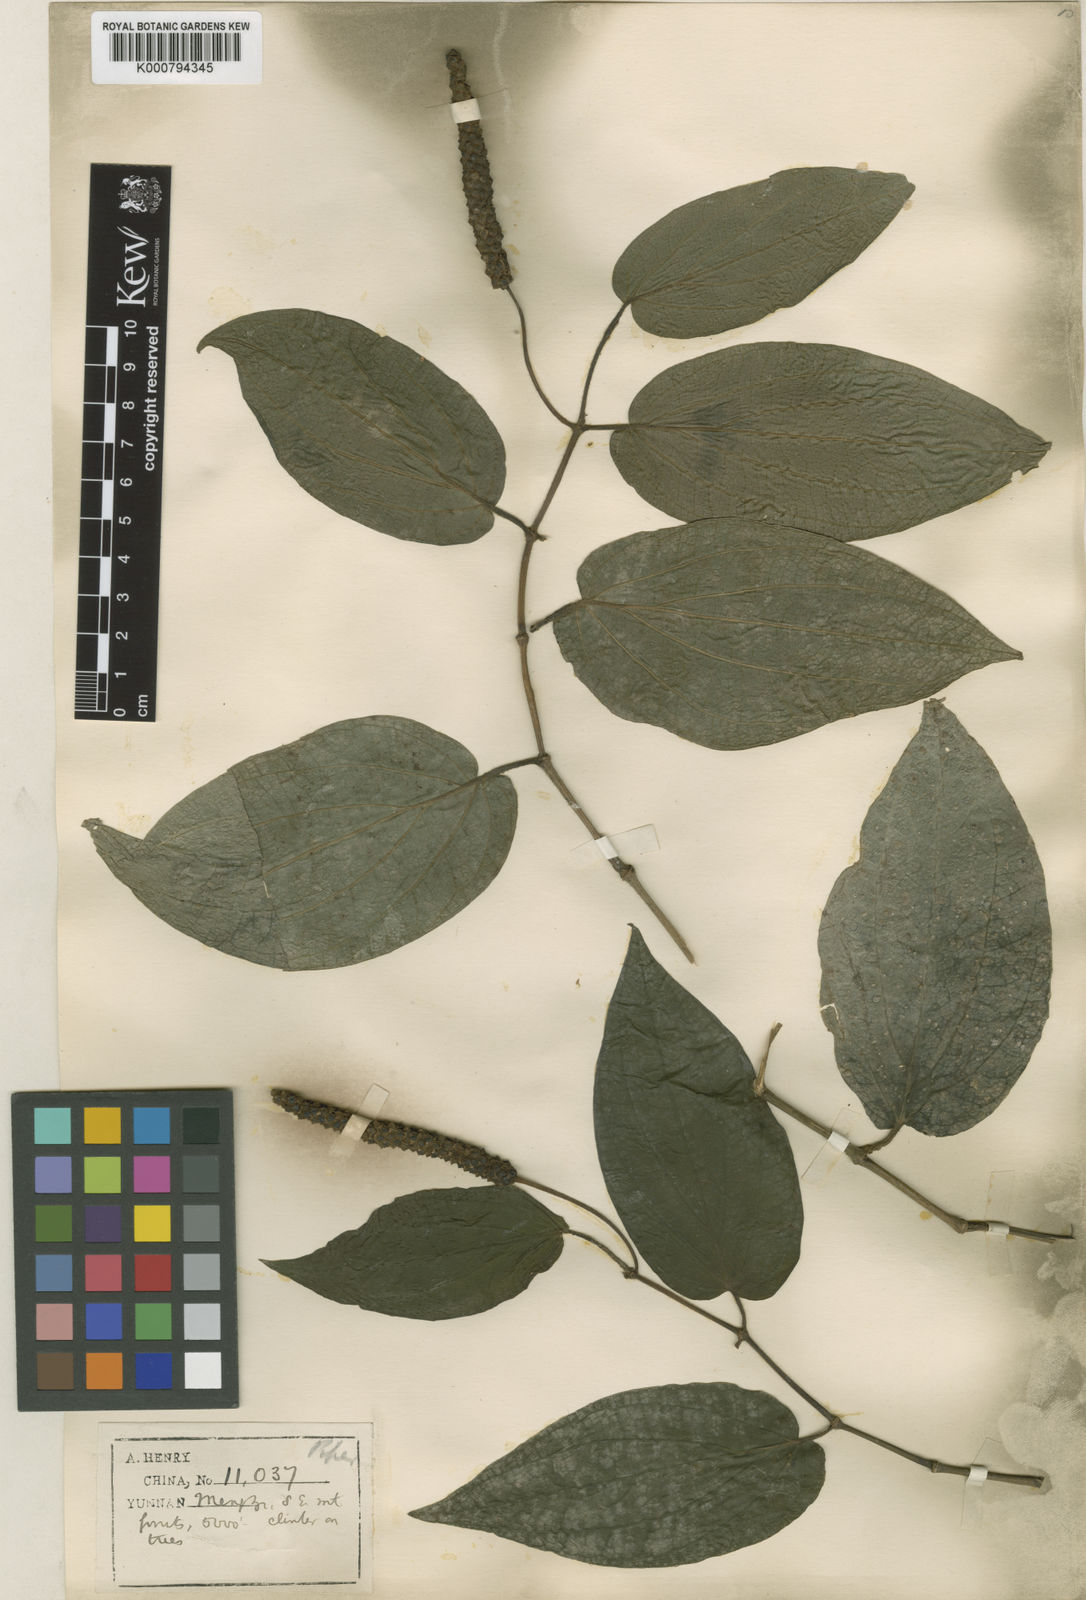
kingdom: Plantae
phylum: Tracheophyta
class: Magnoliopsida
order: Piperales
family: Piperaceae
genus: Piper
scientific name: Piper semiimmersum
